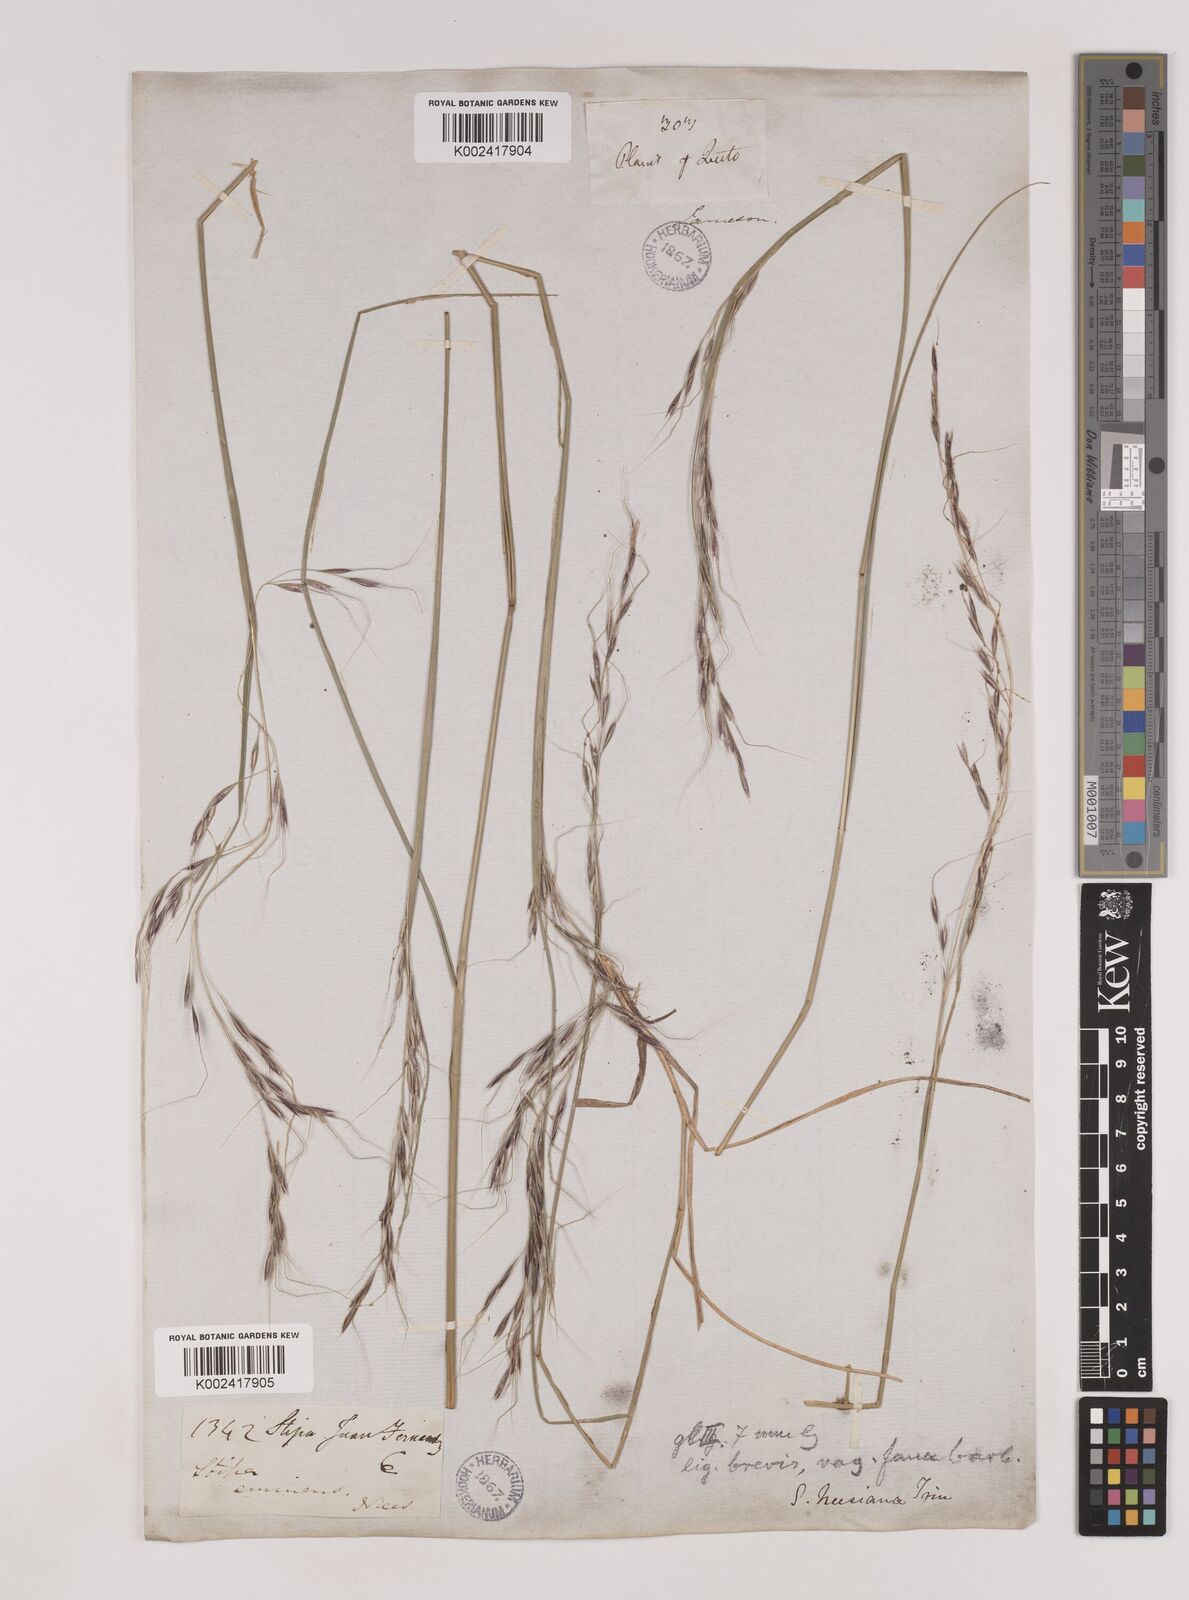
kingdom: Plantae
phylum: Tracheophyta
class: Liliopsida
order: Poales
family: Poaceae
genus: Nassella
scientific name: Nassella neesiana
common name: American needle-grass
